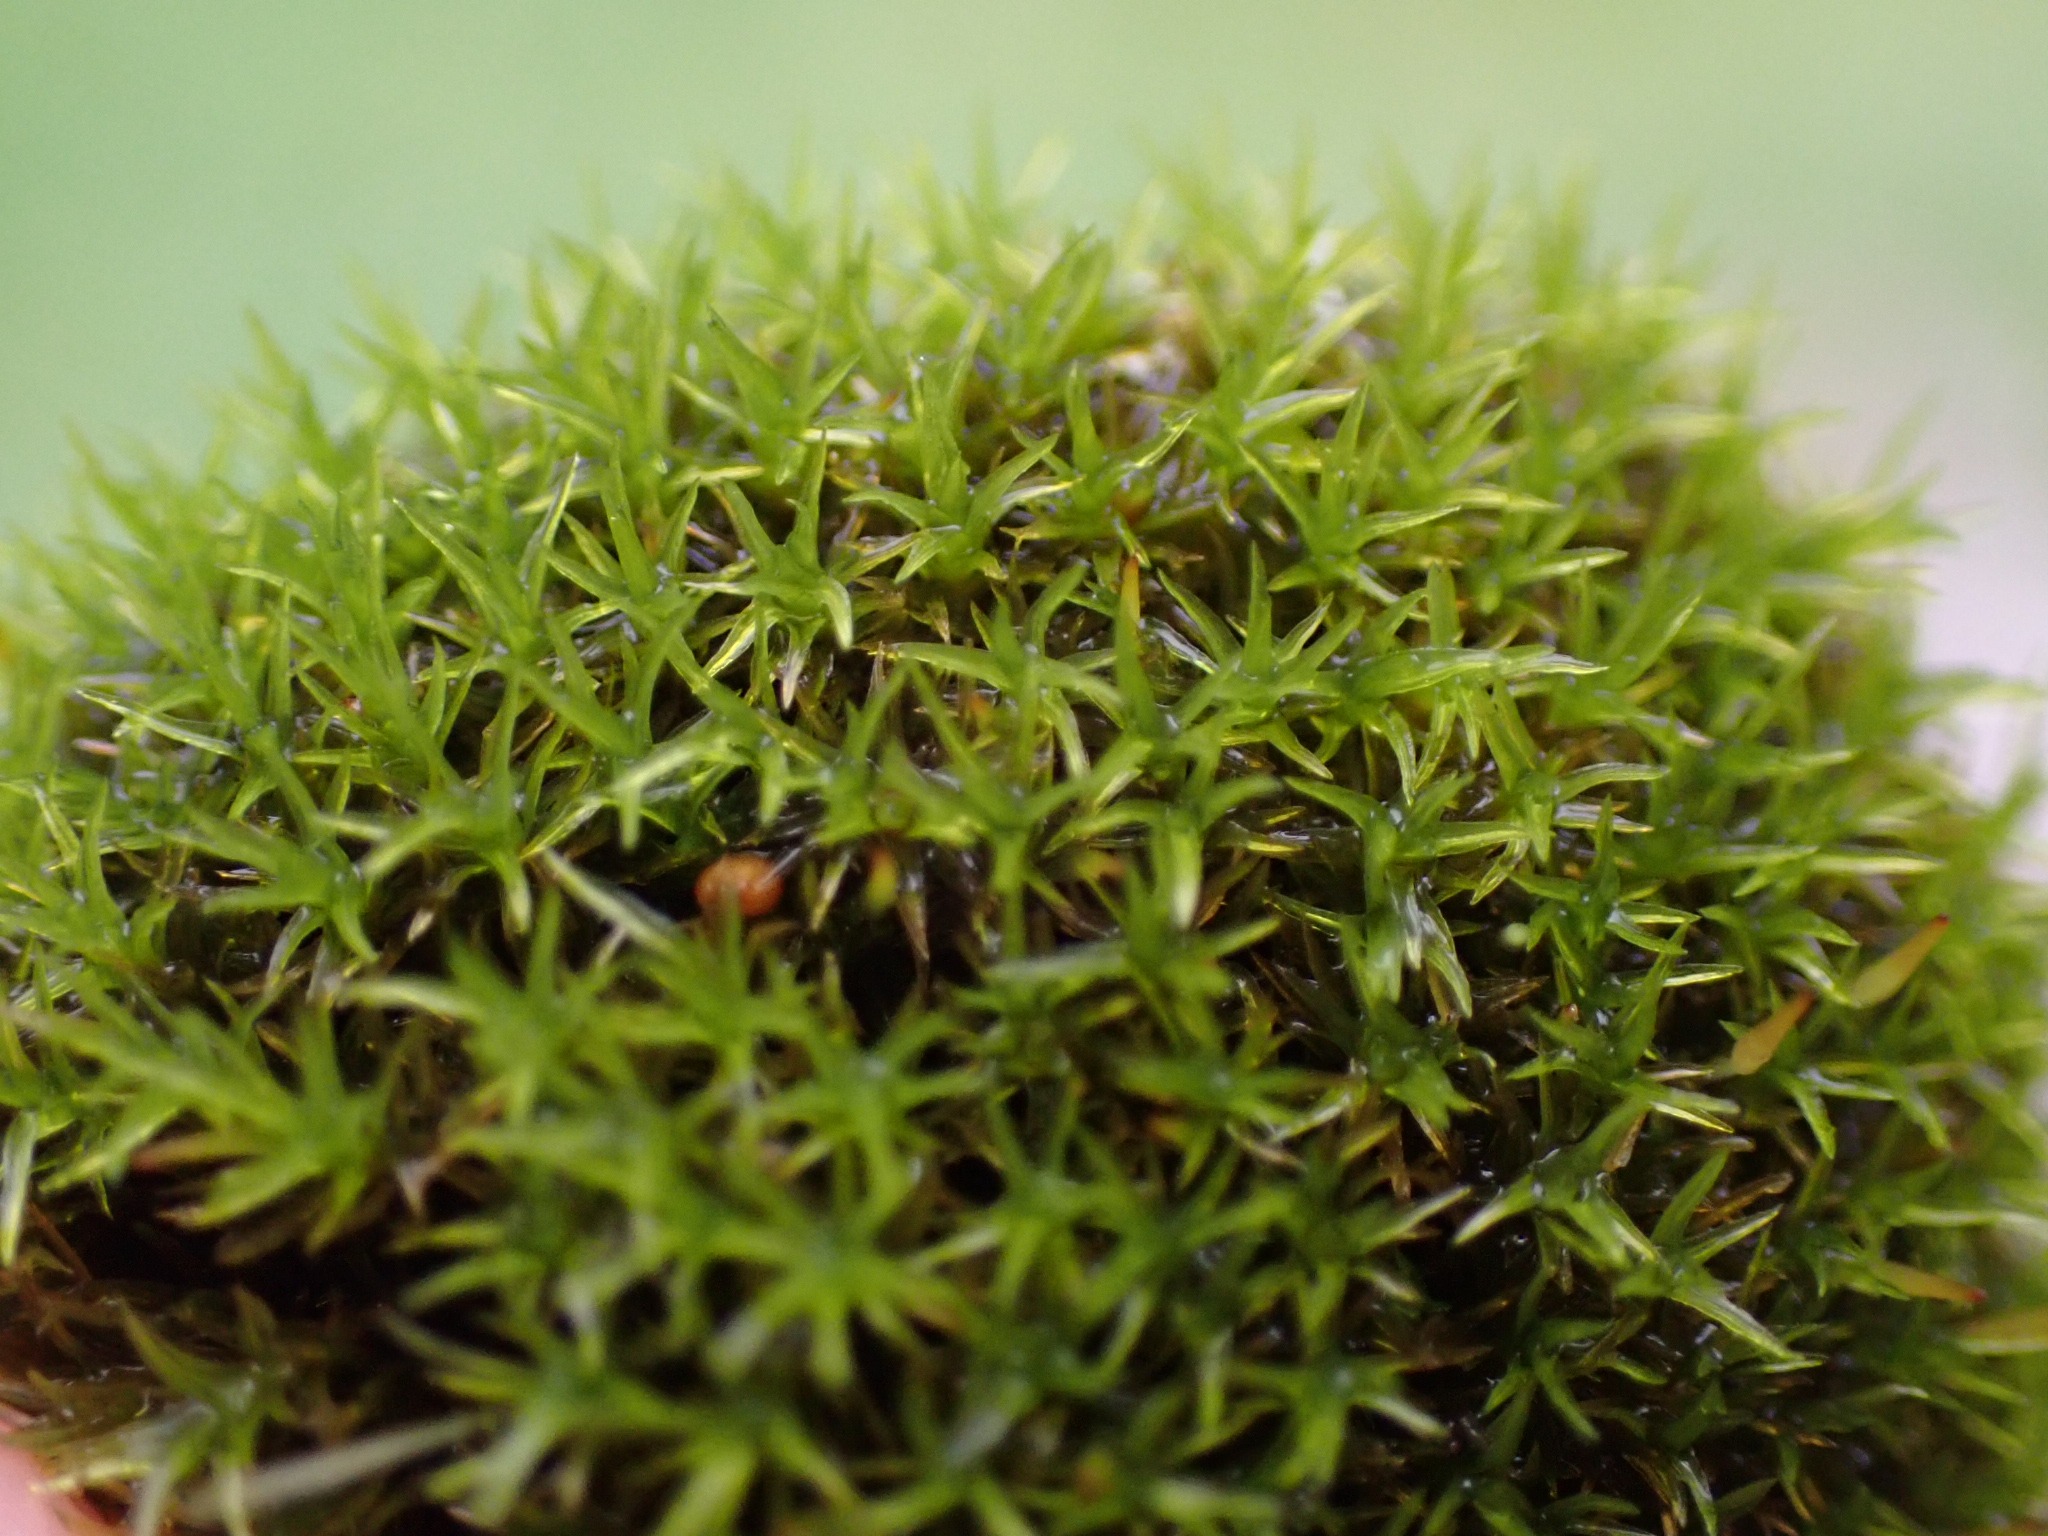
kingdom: Plantae
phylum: Bryophyta
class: Bryopsida
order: Dicranales
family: Rhabdoweisiaceae
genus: Dicranoweisia
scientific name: Dicranoweisia cirrata
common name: Almindelig krøltuemos
